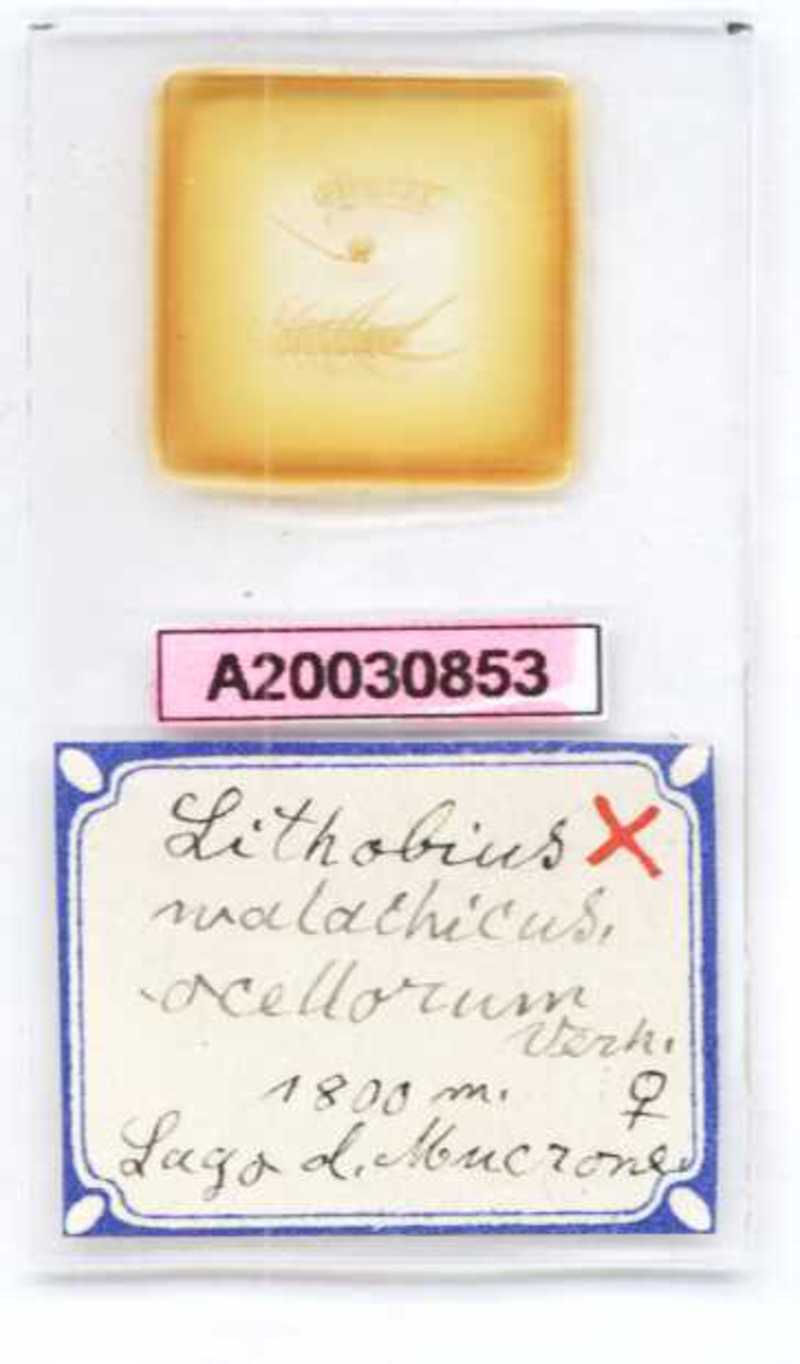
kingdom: Animalia
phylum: Arthropoda
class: Chilopoda
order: Lithobiomorpha
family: Lithobiidae
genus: Lithobius
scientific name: Lithobius lucifugus
